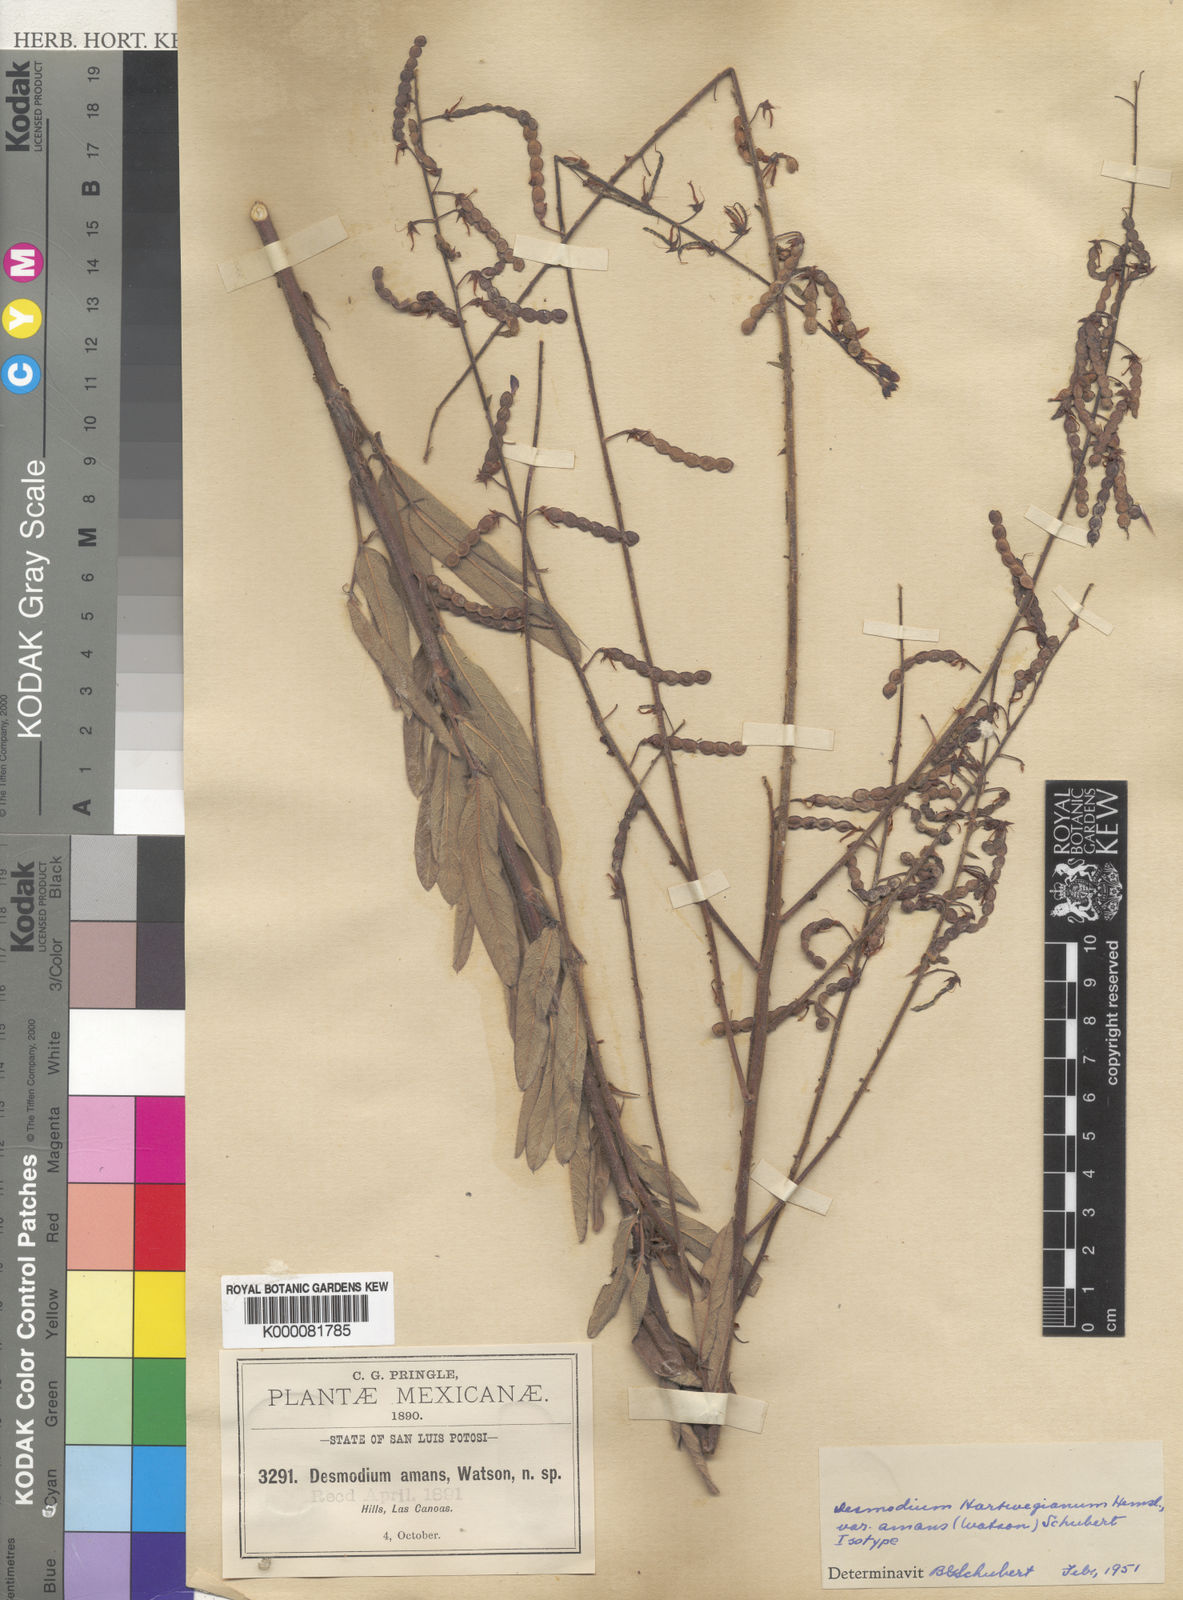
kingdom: Plantae
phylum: Tracheophyta
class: Magnoliopsida
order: Fabales
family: Fabaceae
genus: Desmodium
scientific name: Desmodium hartwegianum
